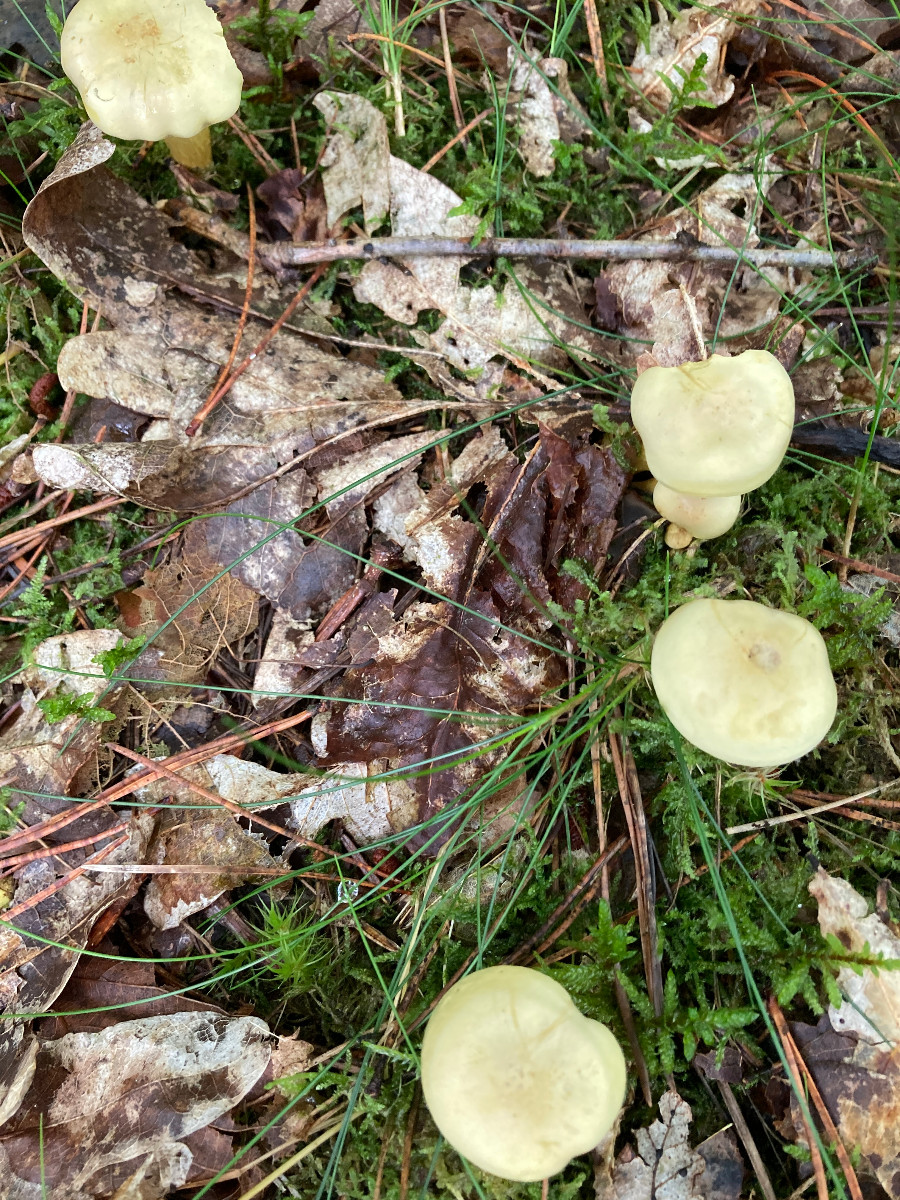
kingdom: Fungi
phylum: Basidiomycota
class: Agaricomycetes
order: Agaricales
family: Tricholomataceae
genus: Tricholoma
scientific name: Tricholoma sulphureum
